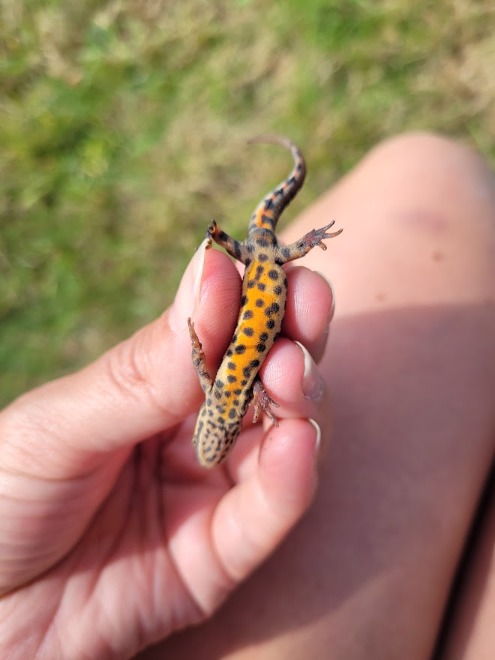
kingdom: Animalia
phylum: Chordata
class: Amphibia
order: Caudata
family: Salamandridae
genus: Lissotriton
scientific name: Lissotriton vulgaris
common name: Lille vandsalamander
